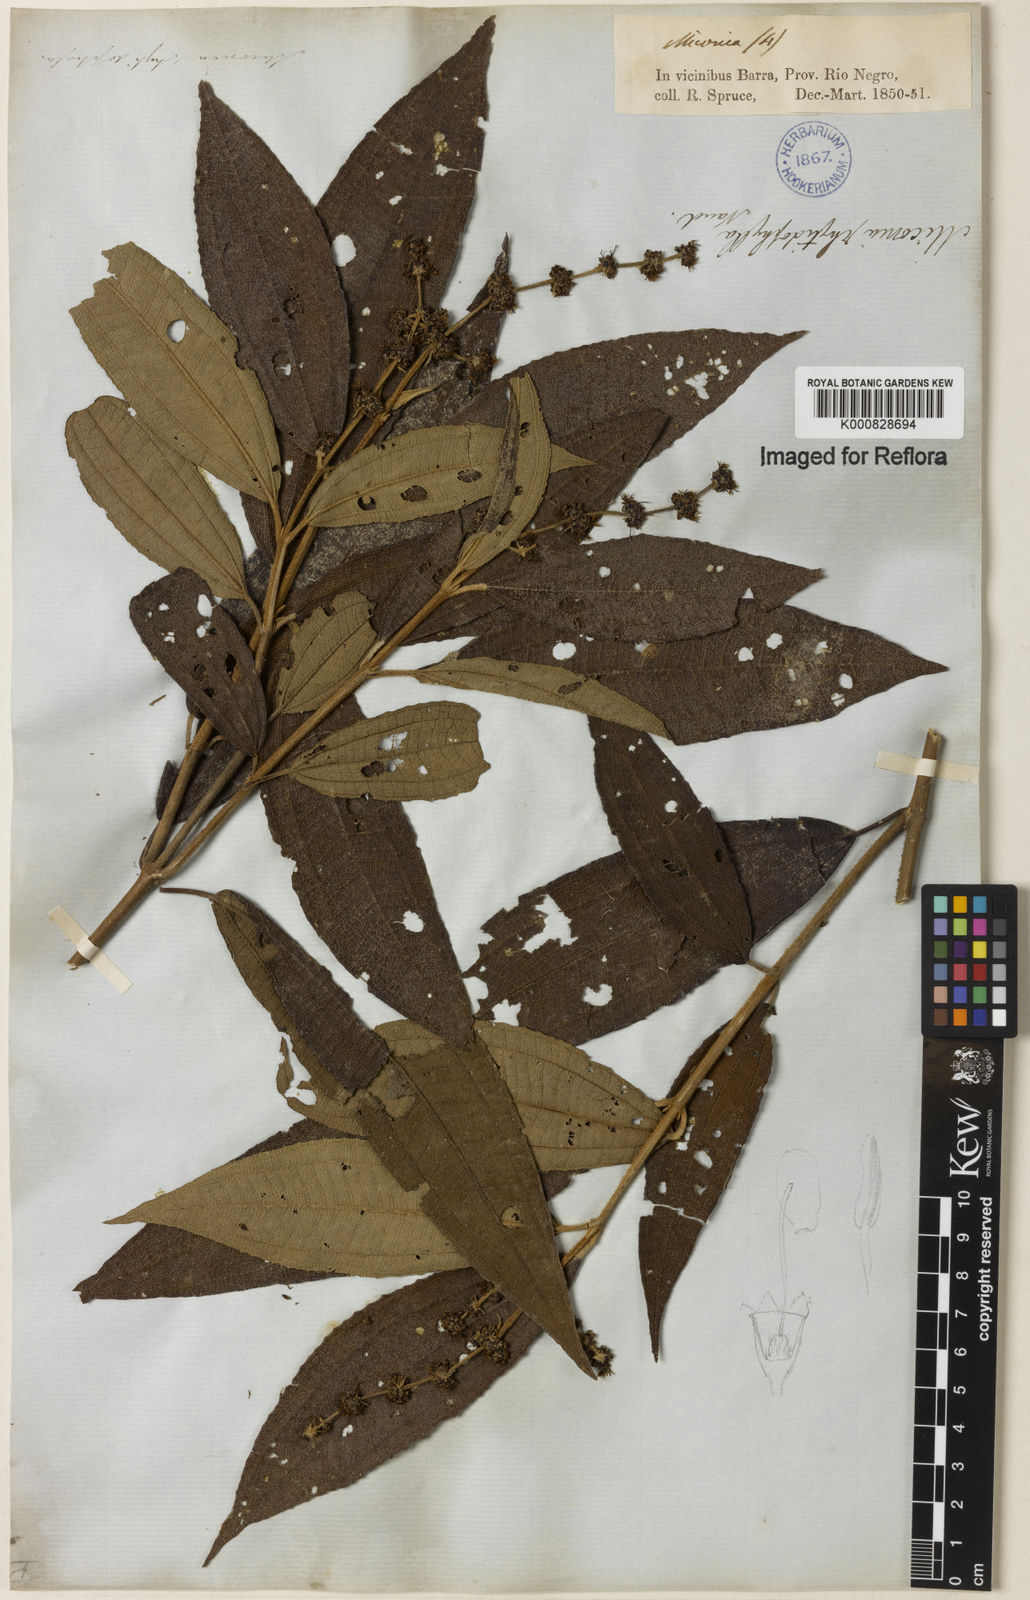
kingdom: Plantae
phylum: Tracheophyta
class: Magnoliopsida
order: Myrtales
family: Melastomataceae
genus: Miconia
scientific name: Miconia rhytidophylla
